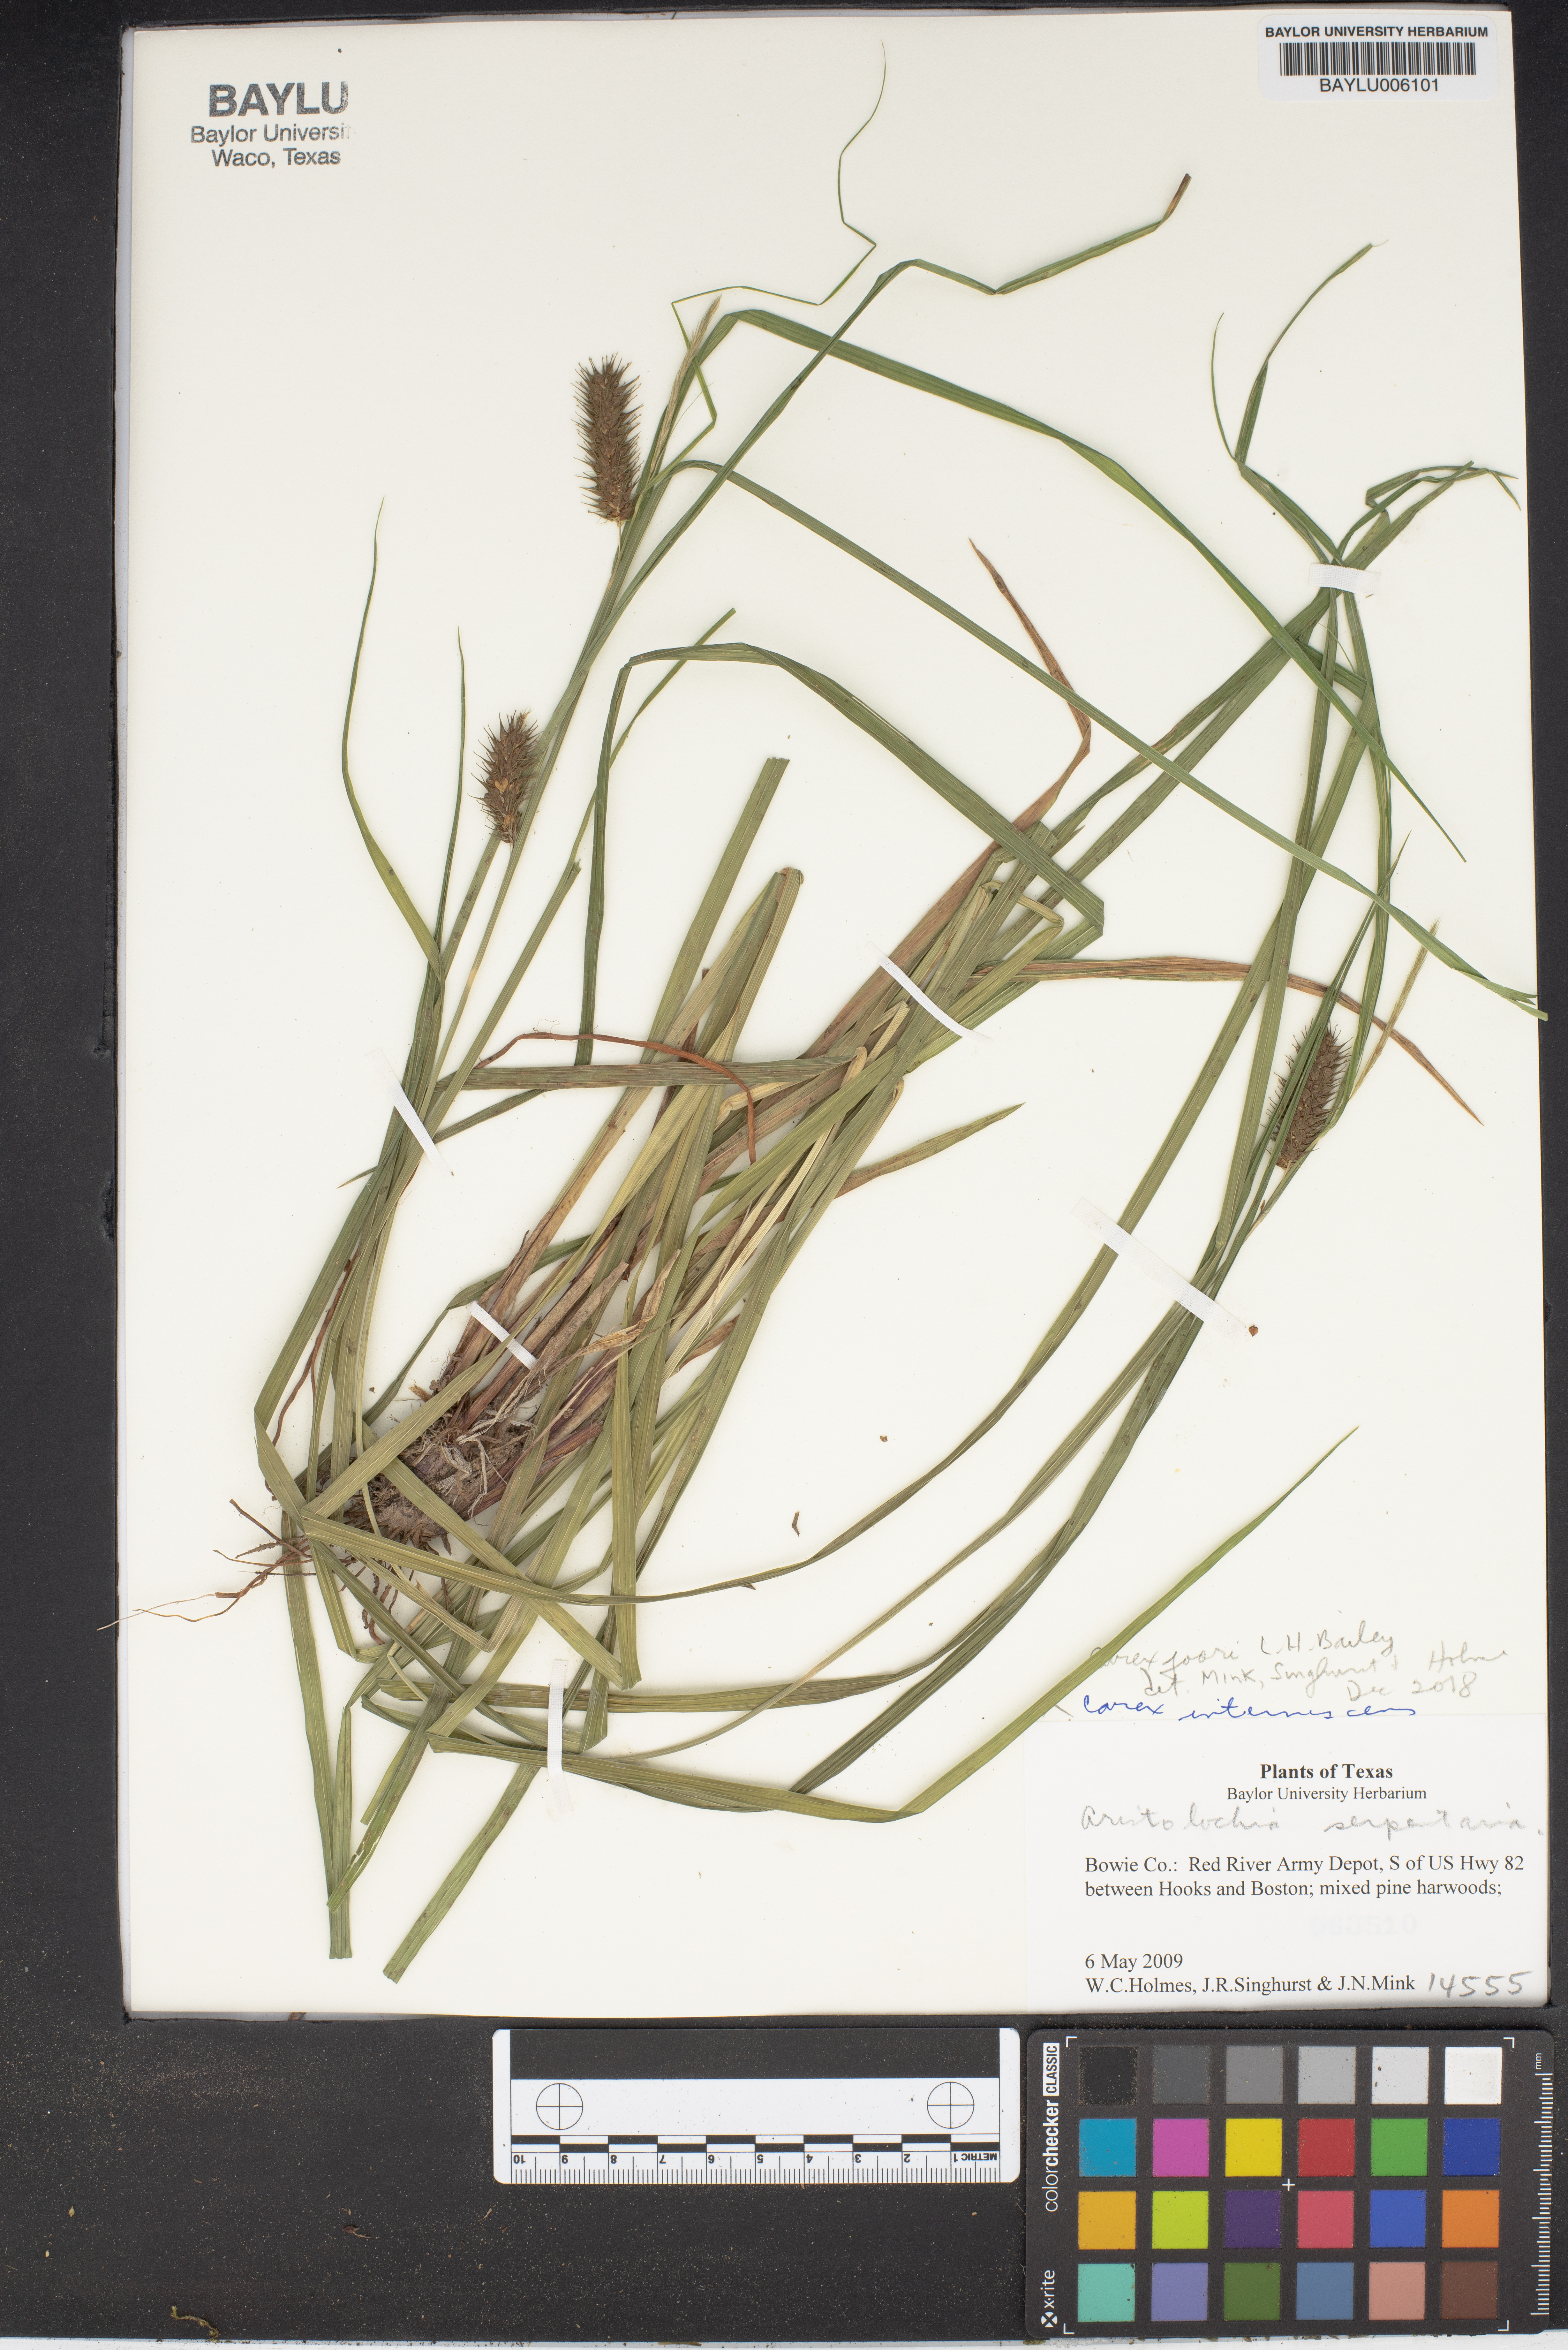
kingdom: Plantae
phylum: Tracheophyta
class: Liliopsida
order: Poales
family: Cyperaceae
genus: Carex
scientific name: Carex joorii
